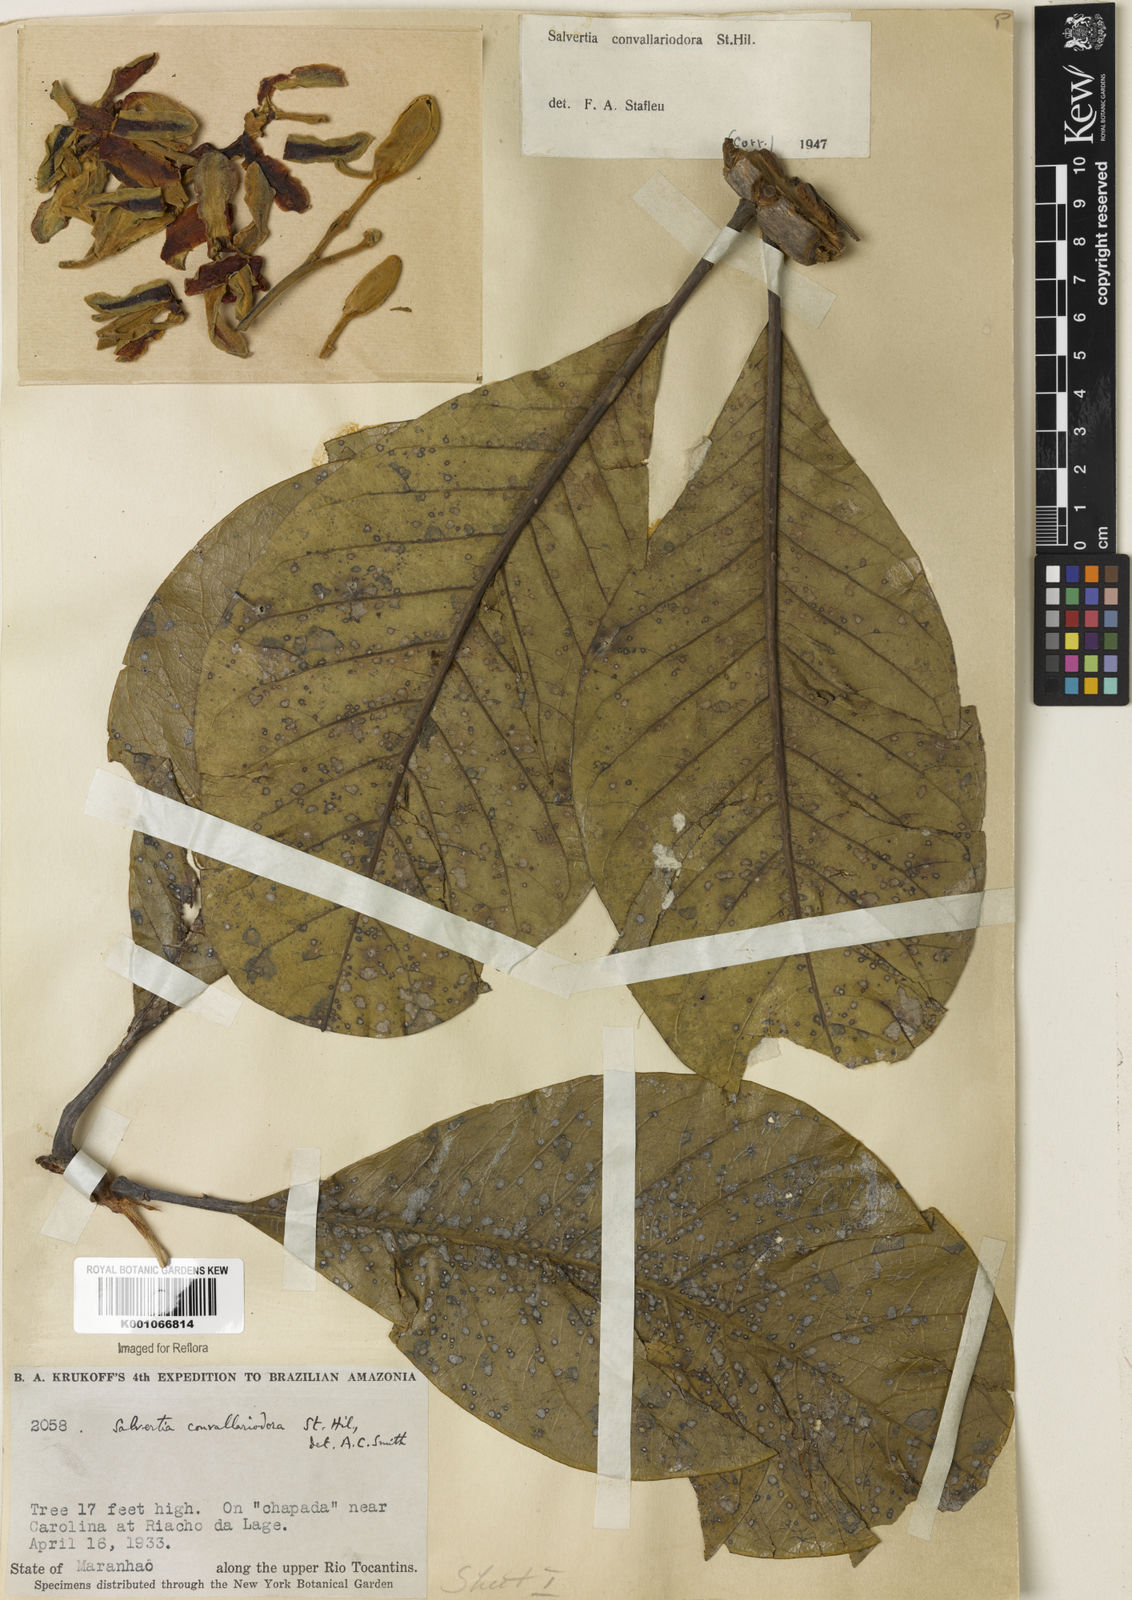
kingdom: Plantae
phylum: Tracheophyta
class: Magnoliopsida
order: Myrtales
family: Vochysiaceae
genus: Salvertia
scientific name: Salvertia convallariodora
